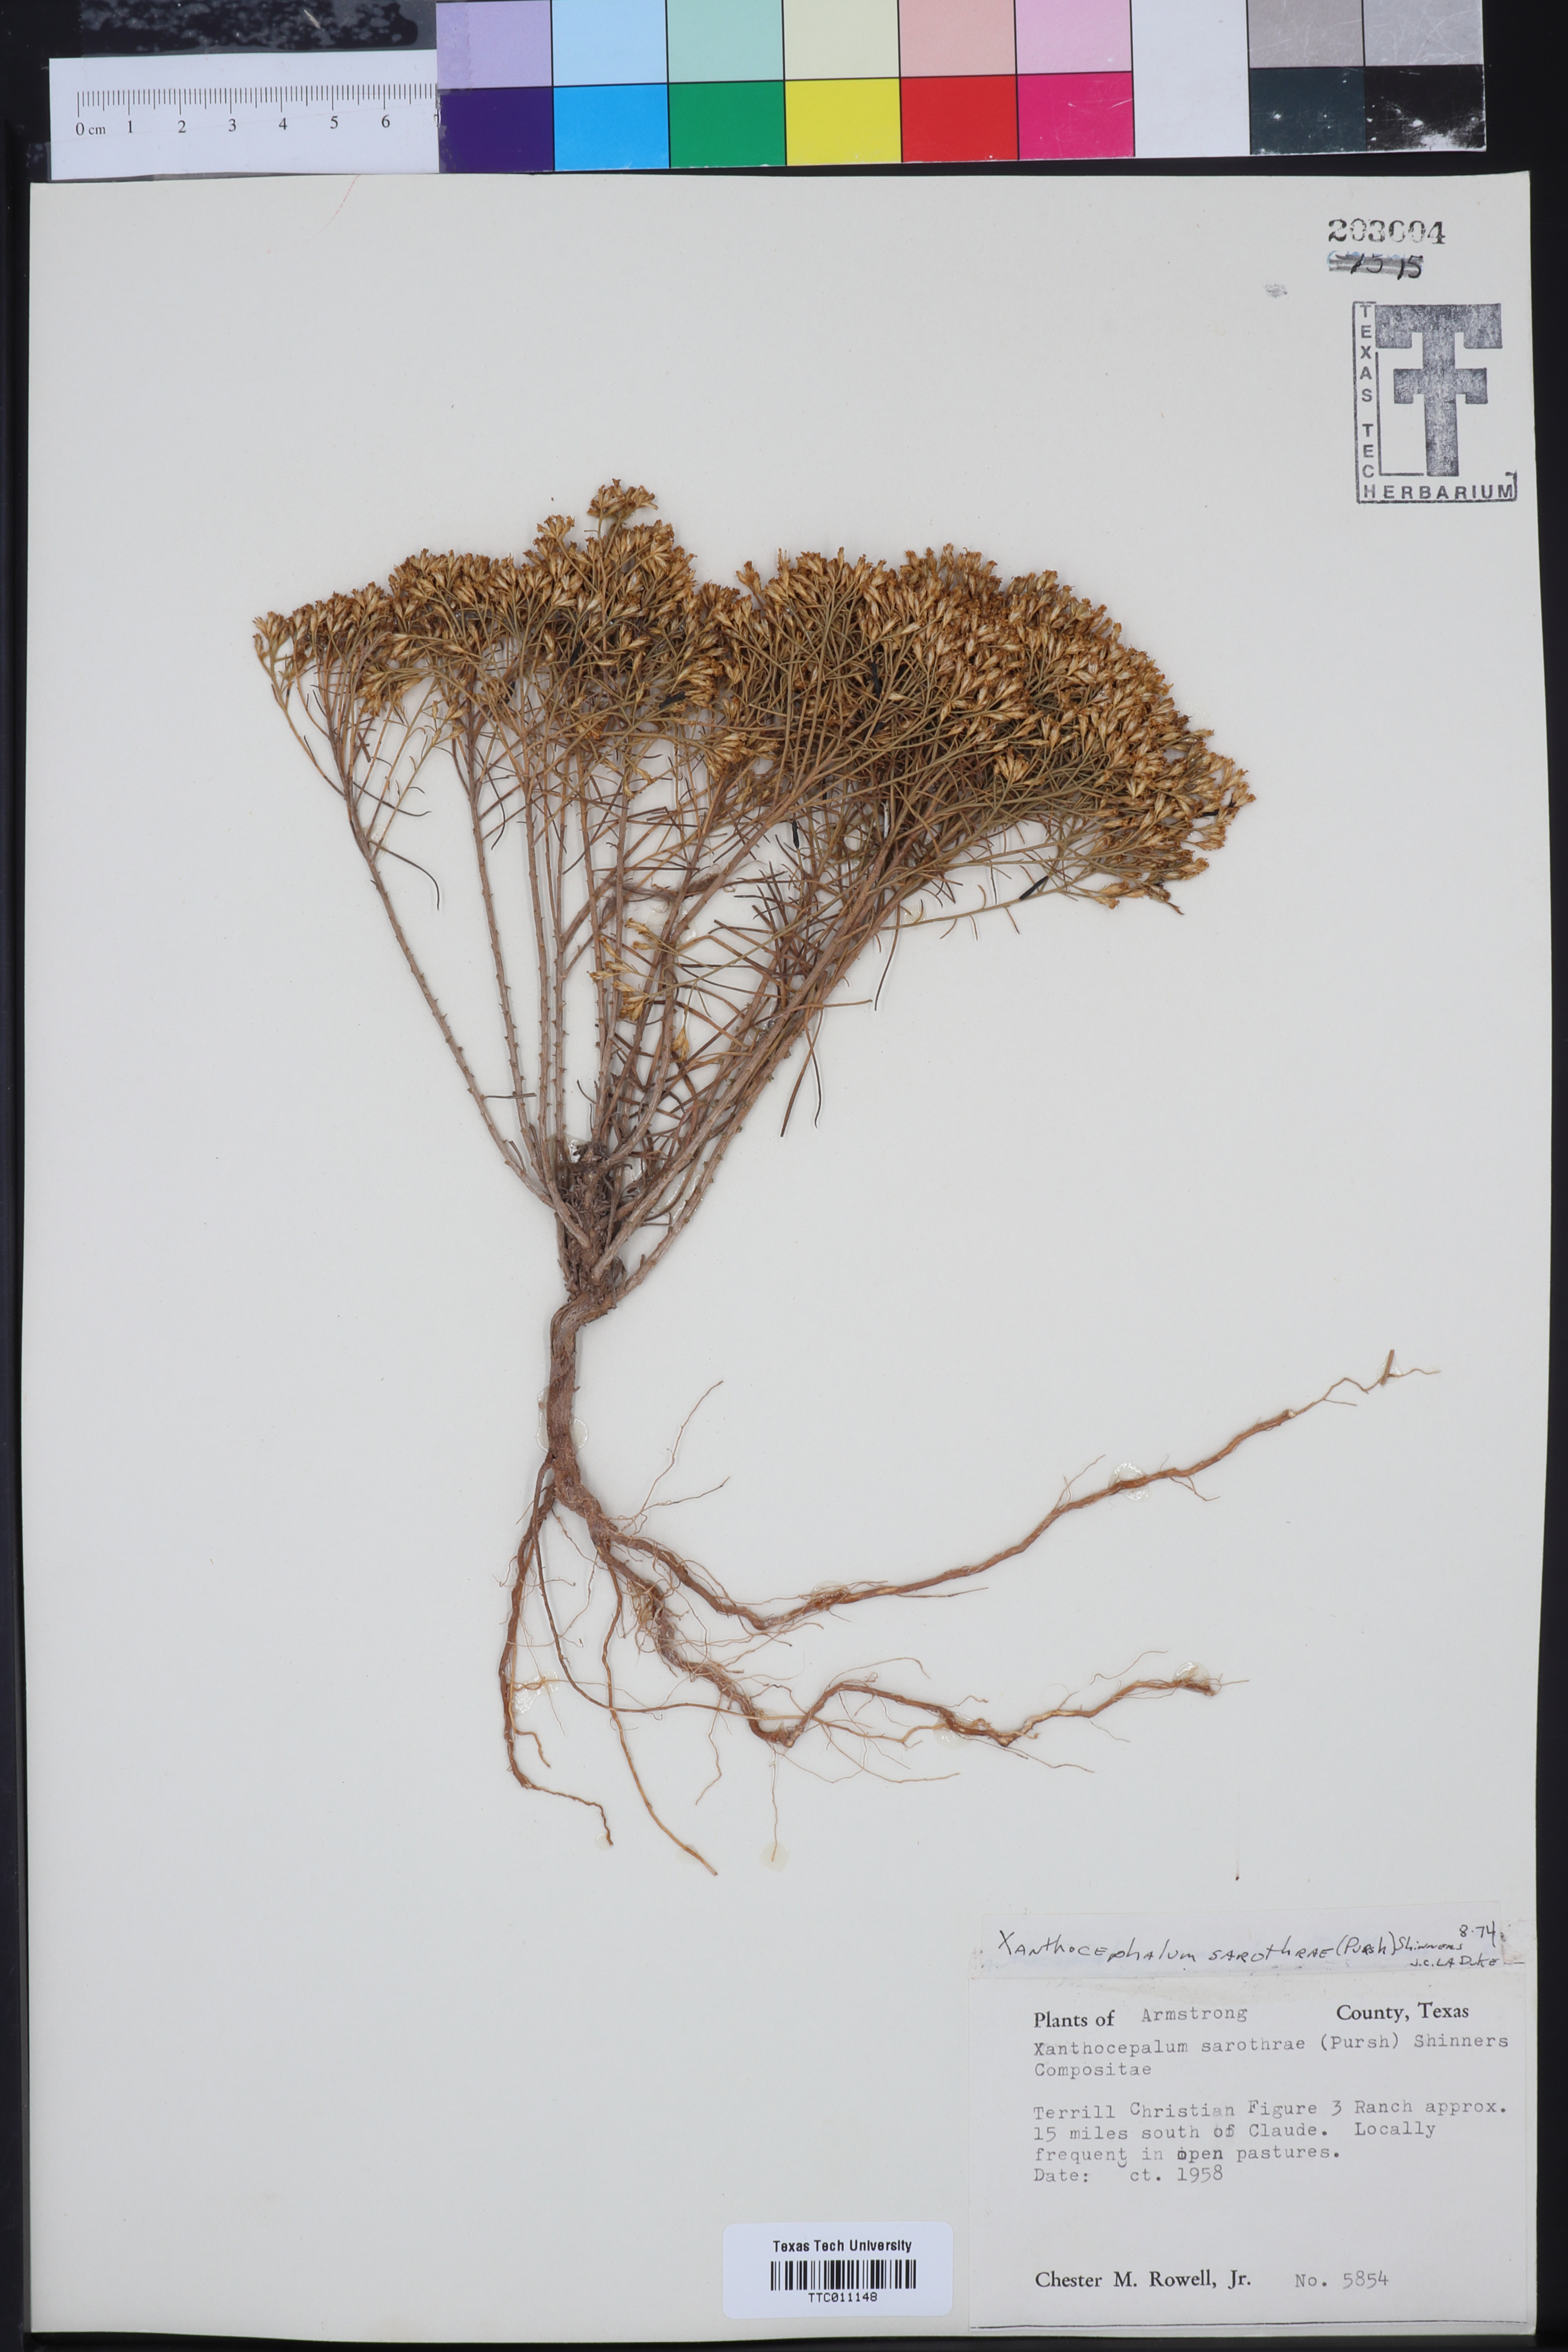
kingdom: Plantae
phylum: Tracheophyta
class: Magnoliopsida
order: Asterales
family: Asteraceae
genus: Gutierrezia
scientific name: Gutierrezia sarothrae
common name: Broom snakeweed
